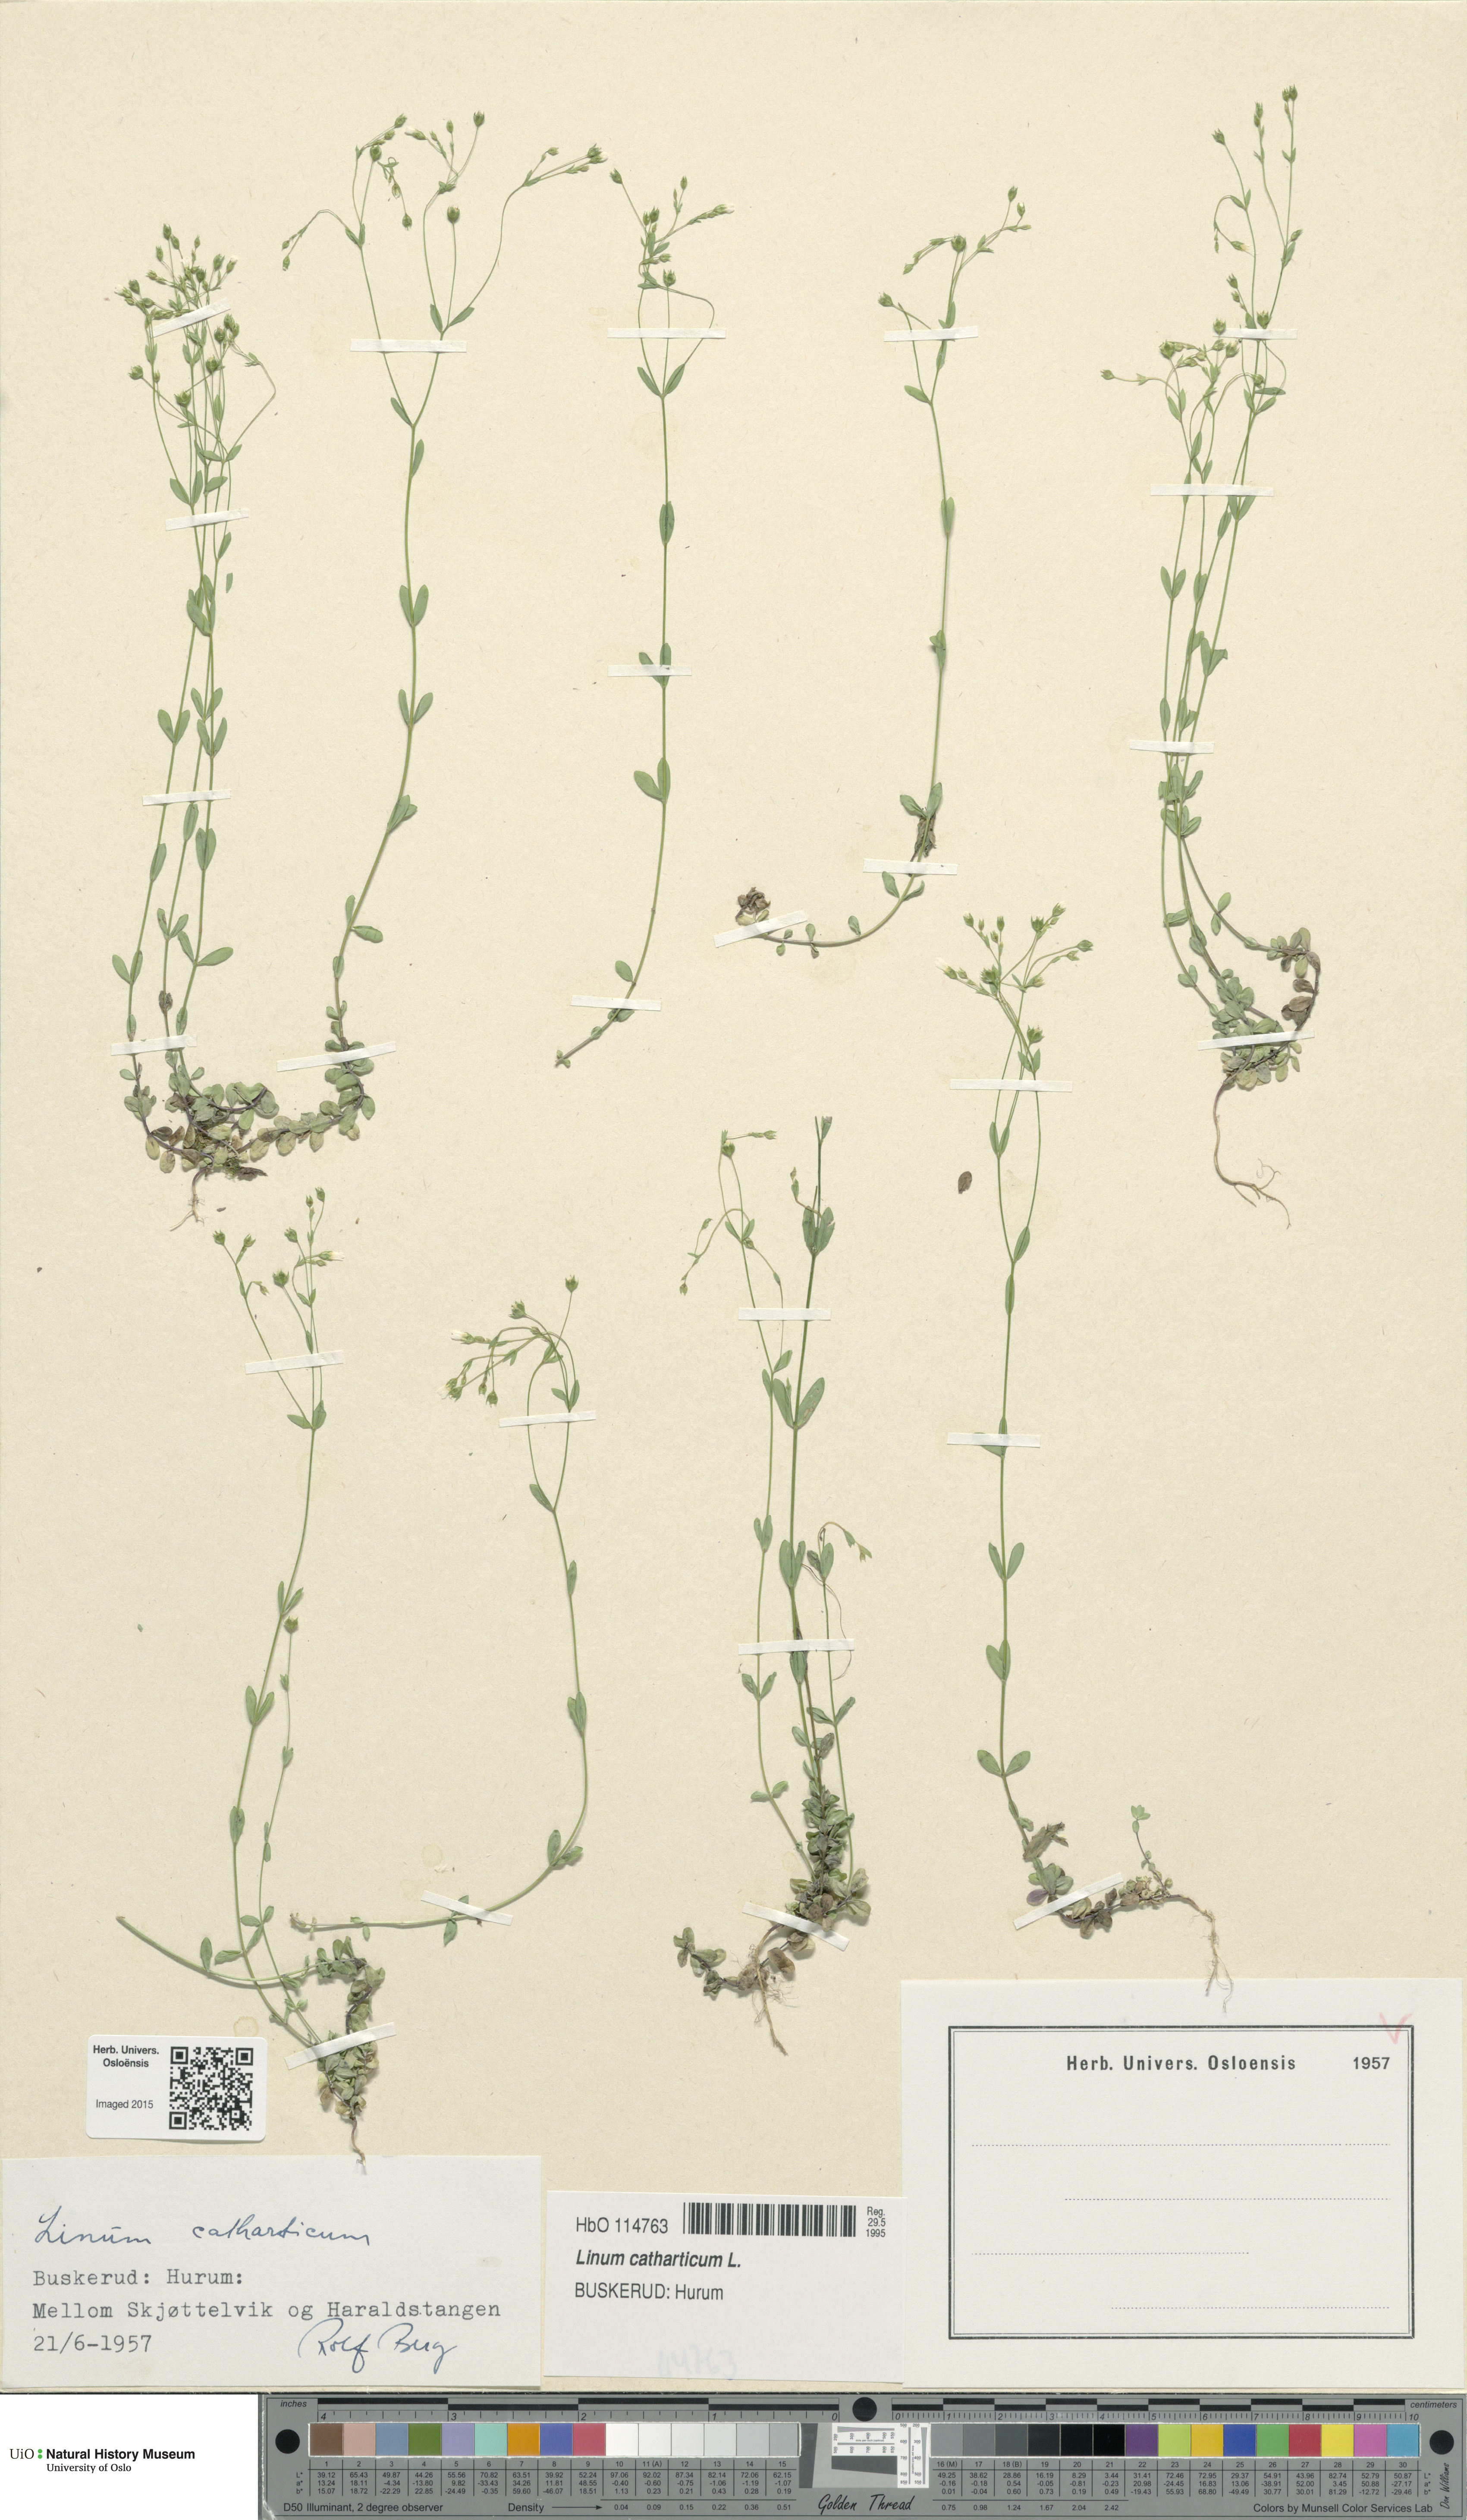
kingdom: Plantae
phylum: Tracheophyta
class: Magnoliopsida
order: Malpighiales
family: Linaceae
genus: Linum
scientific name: Linum catharticum
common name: Fairy flax
